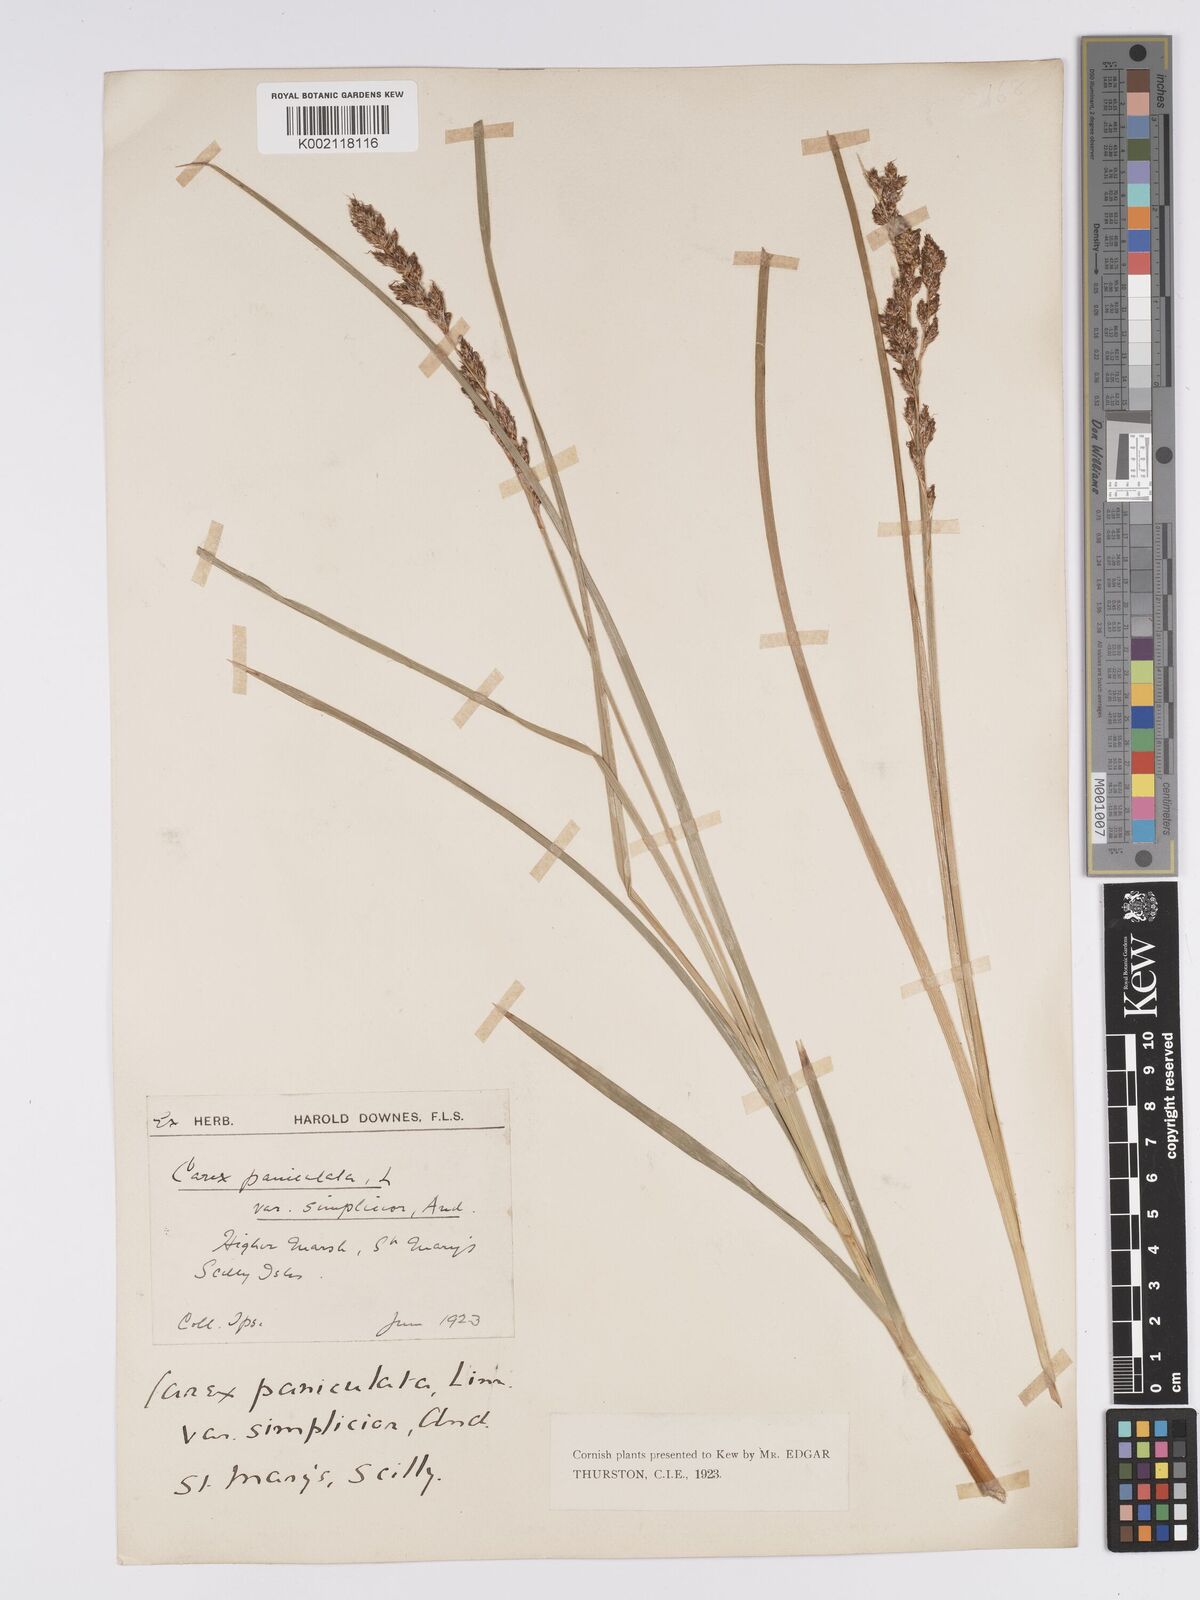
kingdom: Plantae
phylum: Tracheophyta
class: Liliopsida
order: Poales
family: Cyperaceae
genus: Carex
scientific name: Carex paniculata
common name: Greater tussock-sedge
